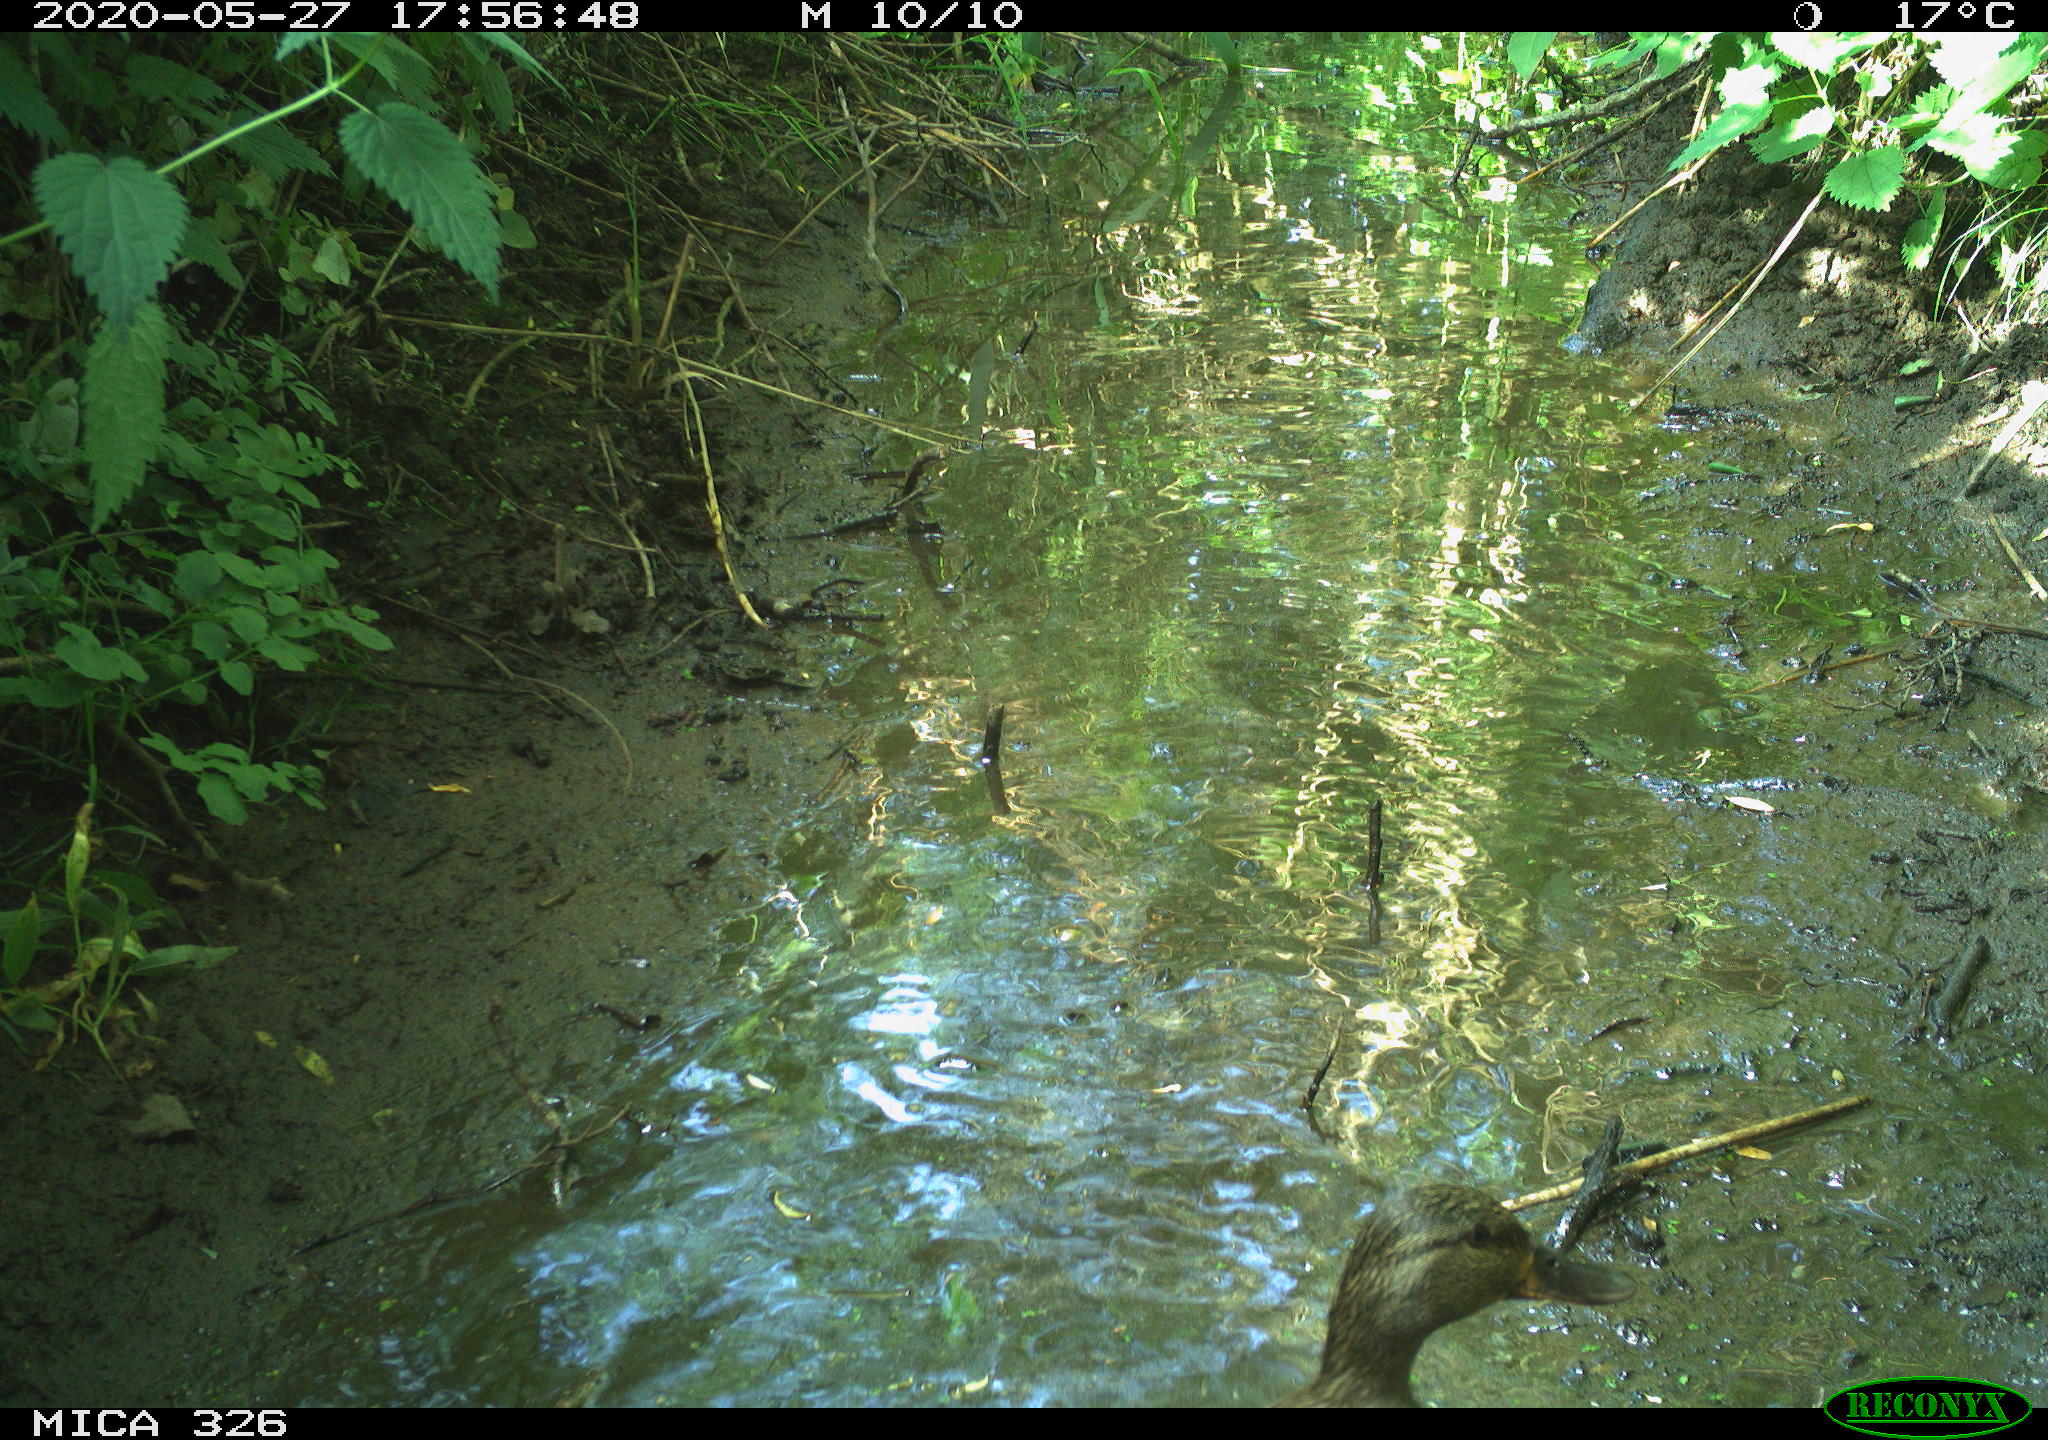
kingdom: Animalia
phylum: Chordata
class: Aves
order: Anseriformes
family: Anatidae
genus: Anas
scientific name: Anas platyrhynchos
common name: Mallard
